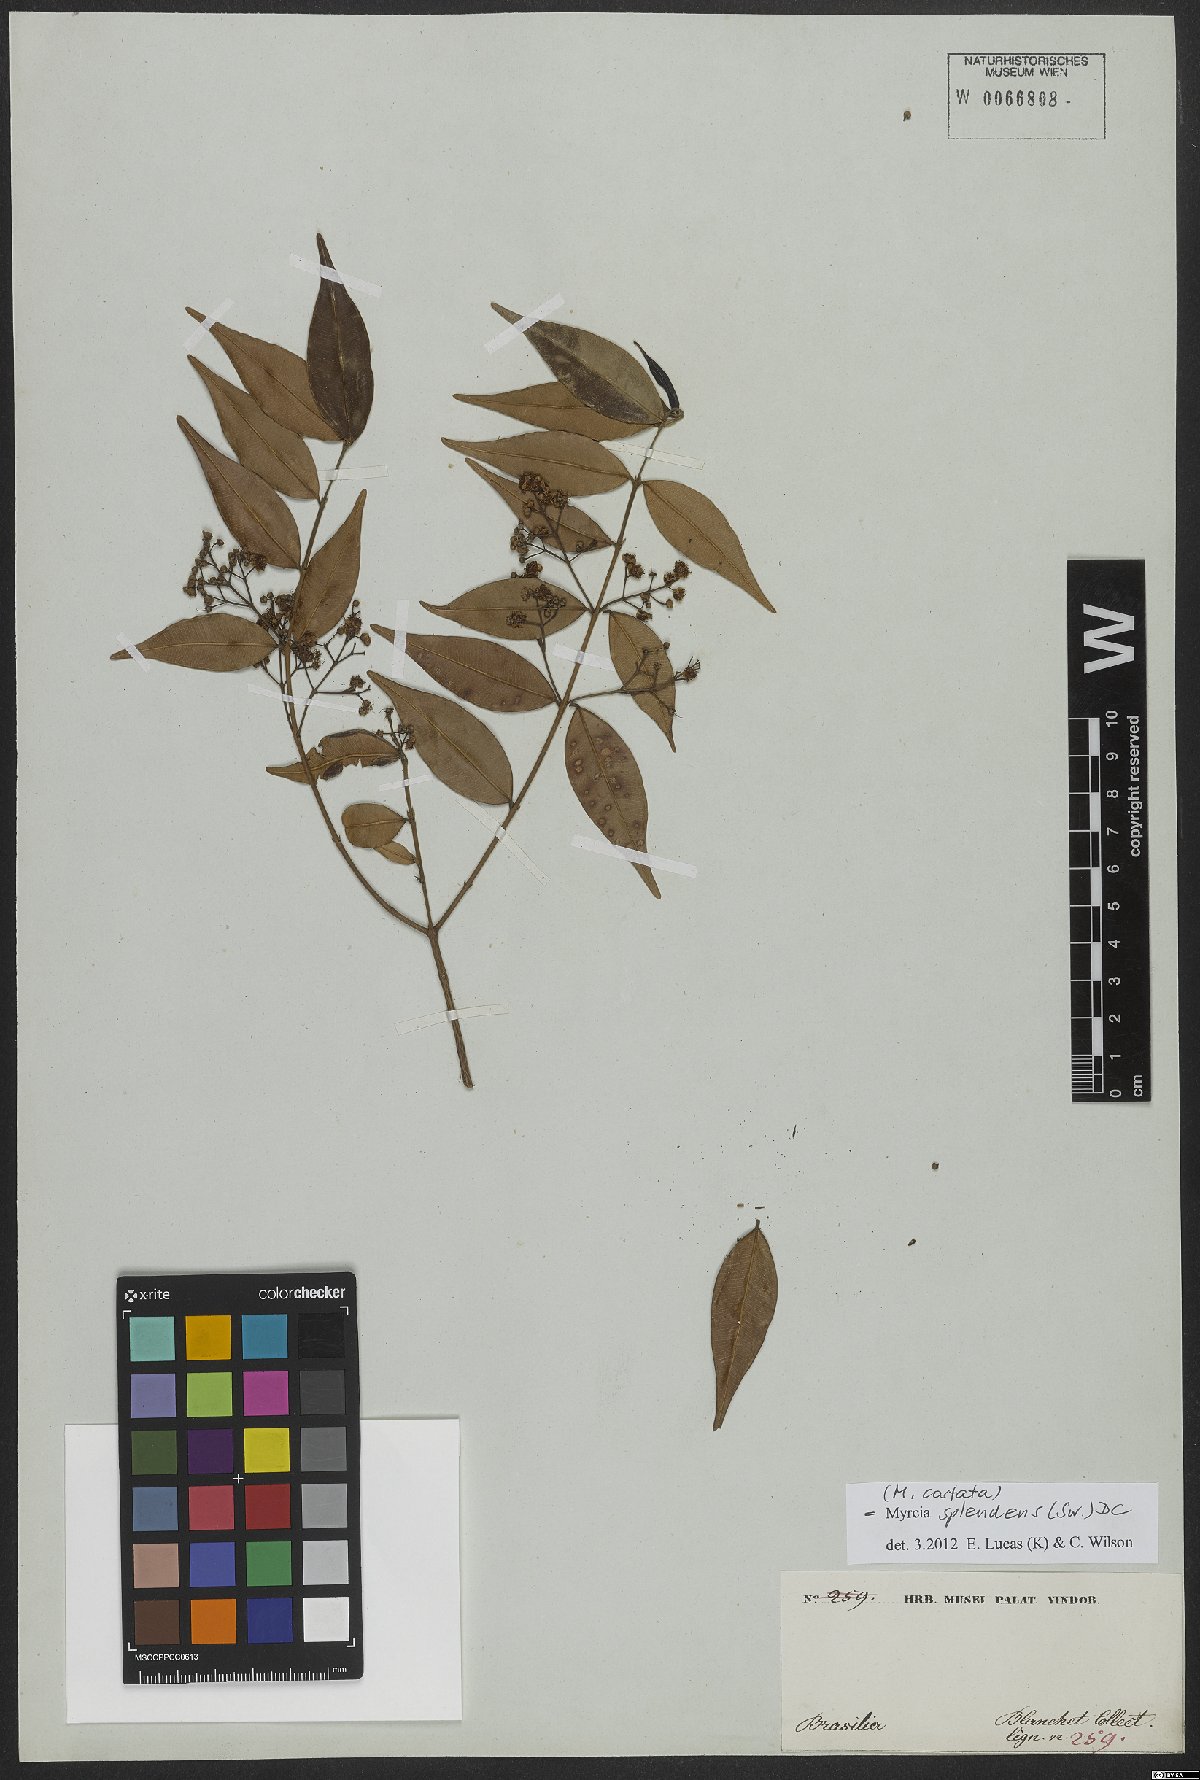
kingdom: Plantae
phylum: Tracheophyta
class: Magnoliopsida
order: Myrtales
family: Myrtaceae
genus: Myrcia
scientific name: Myrcia splendens
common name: Surinam cherry
